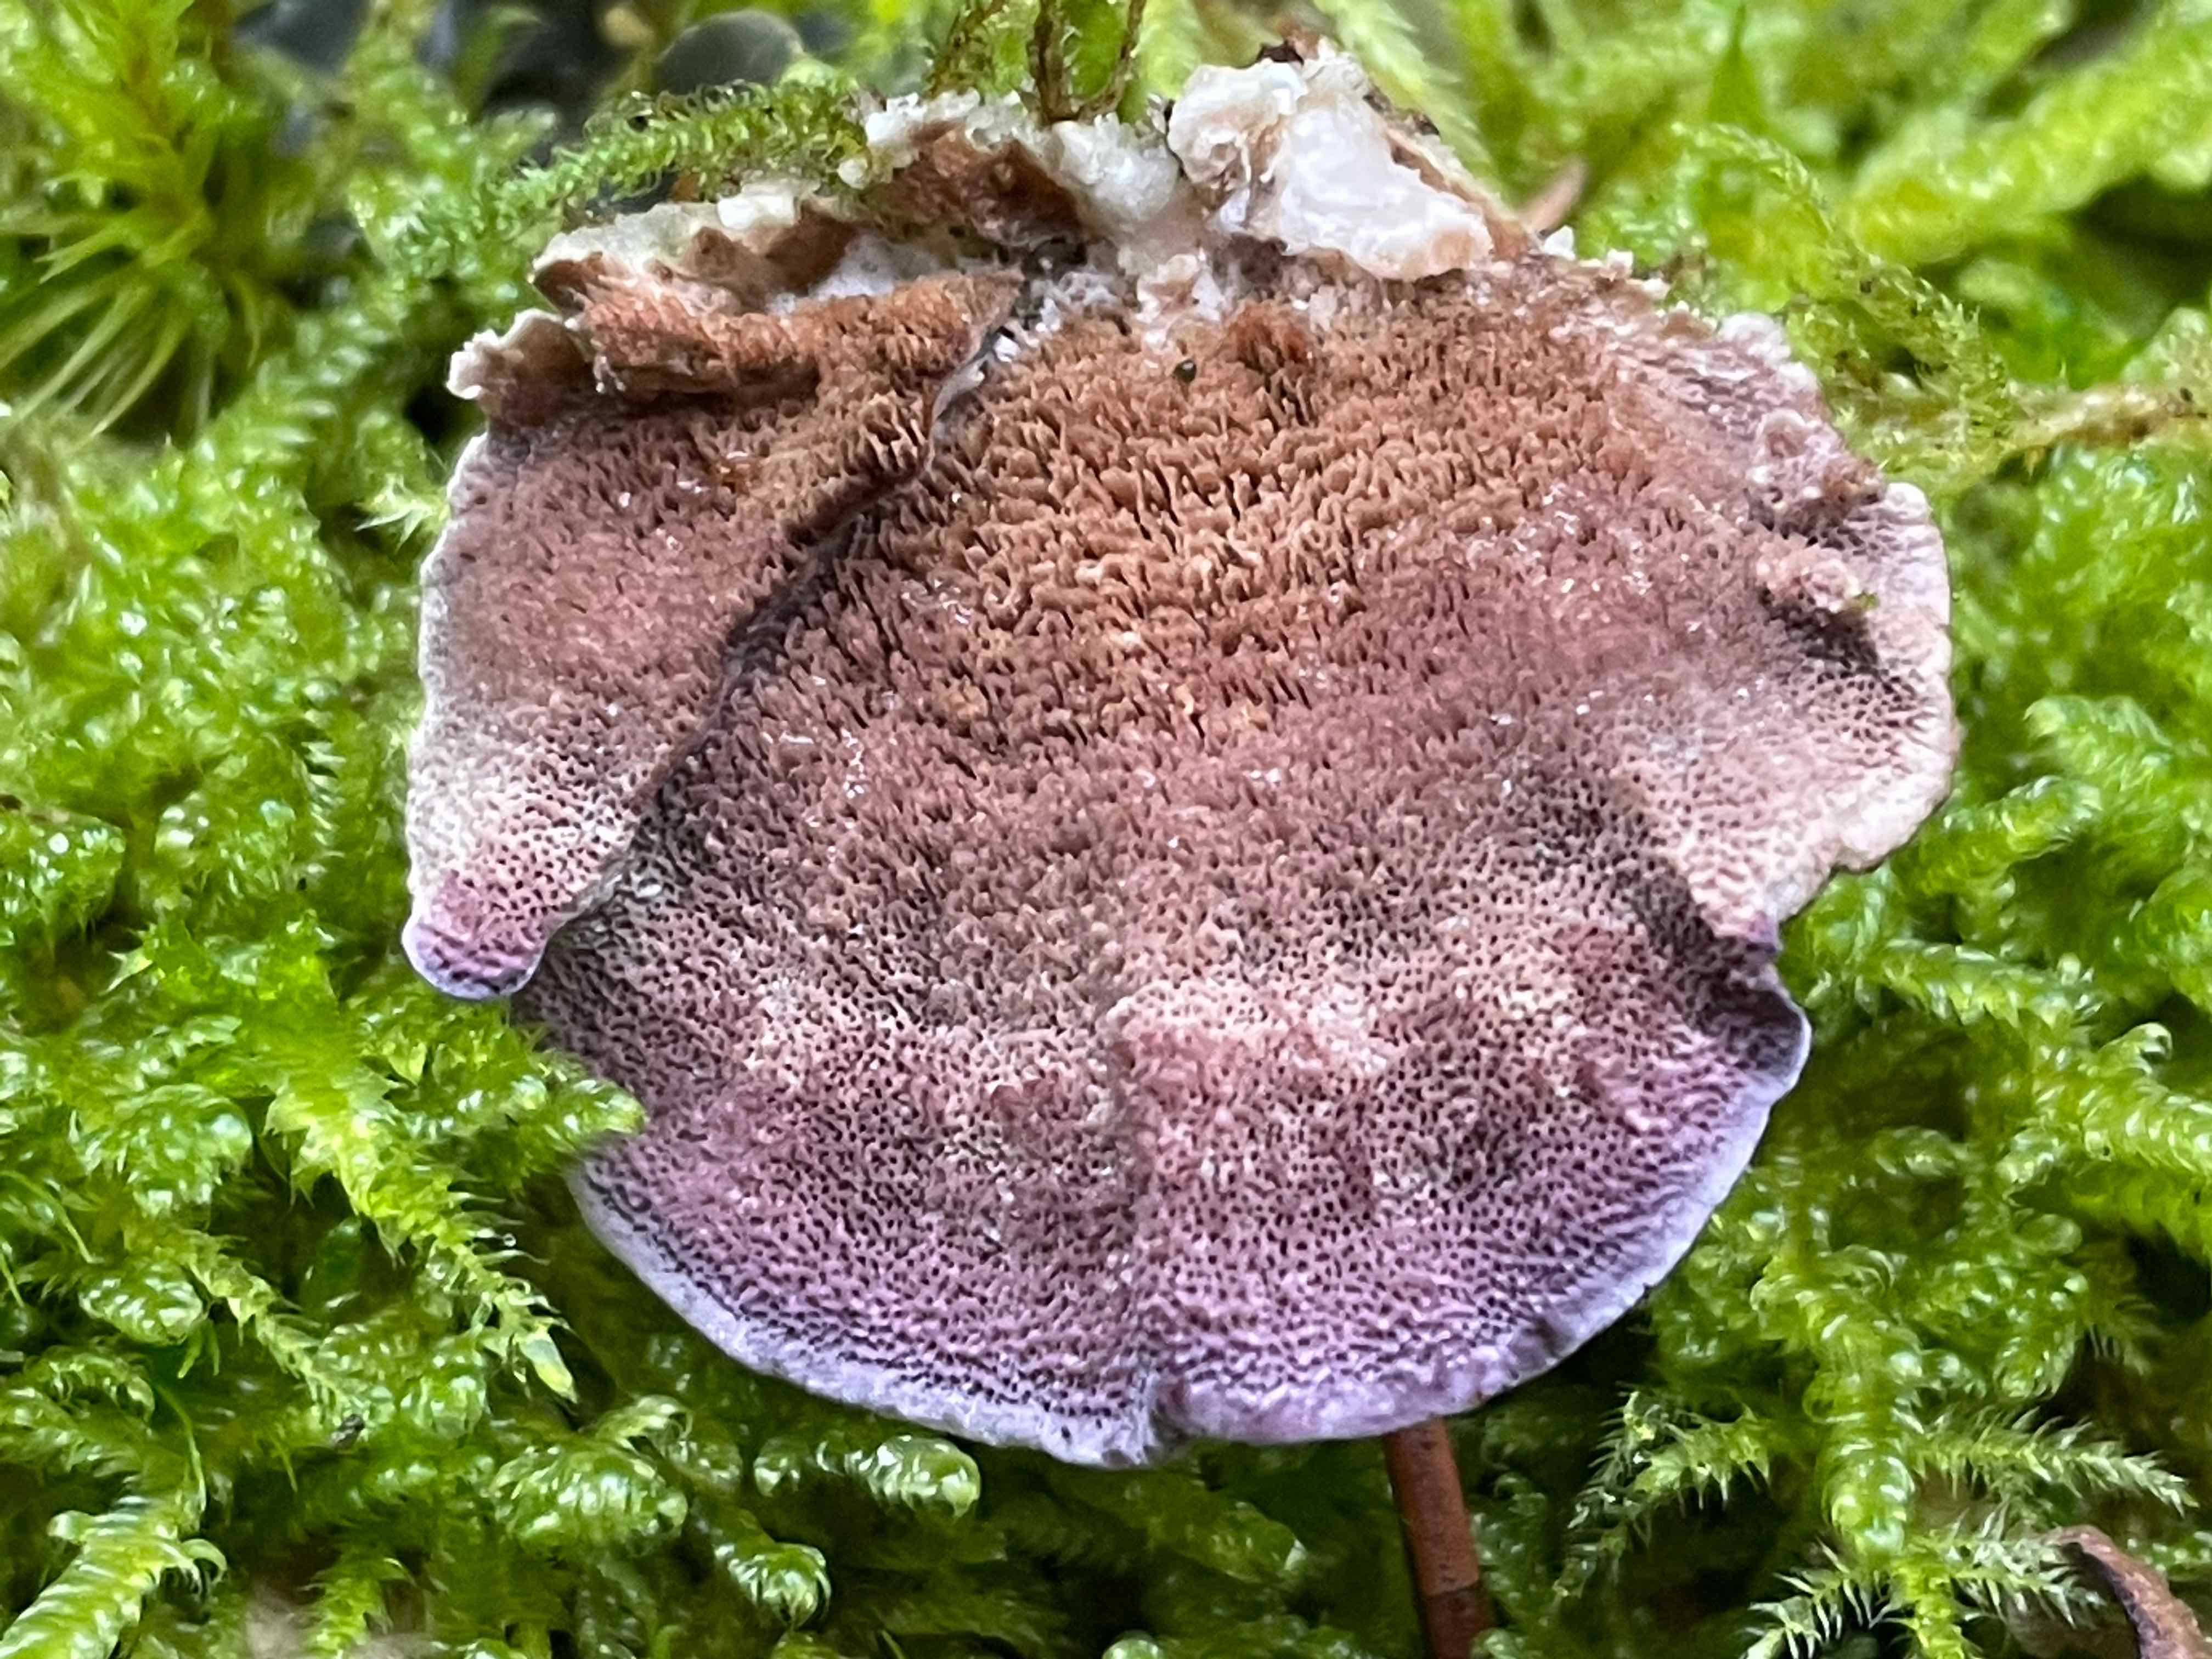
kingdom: Fungi
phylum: Basidiomycota
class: Agaricomycetes
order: Hymenochaetales
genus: Trichaptum
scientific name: Trichaptum abietinum
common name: almindelig violporesvamp
